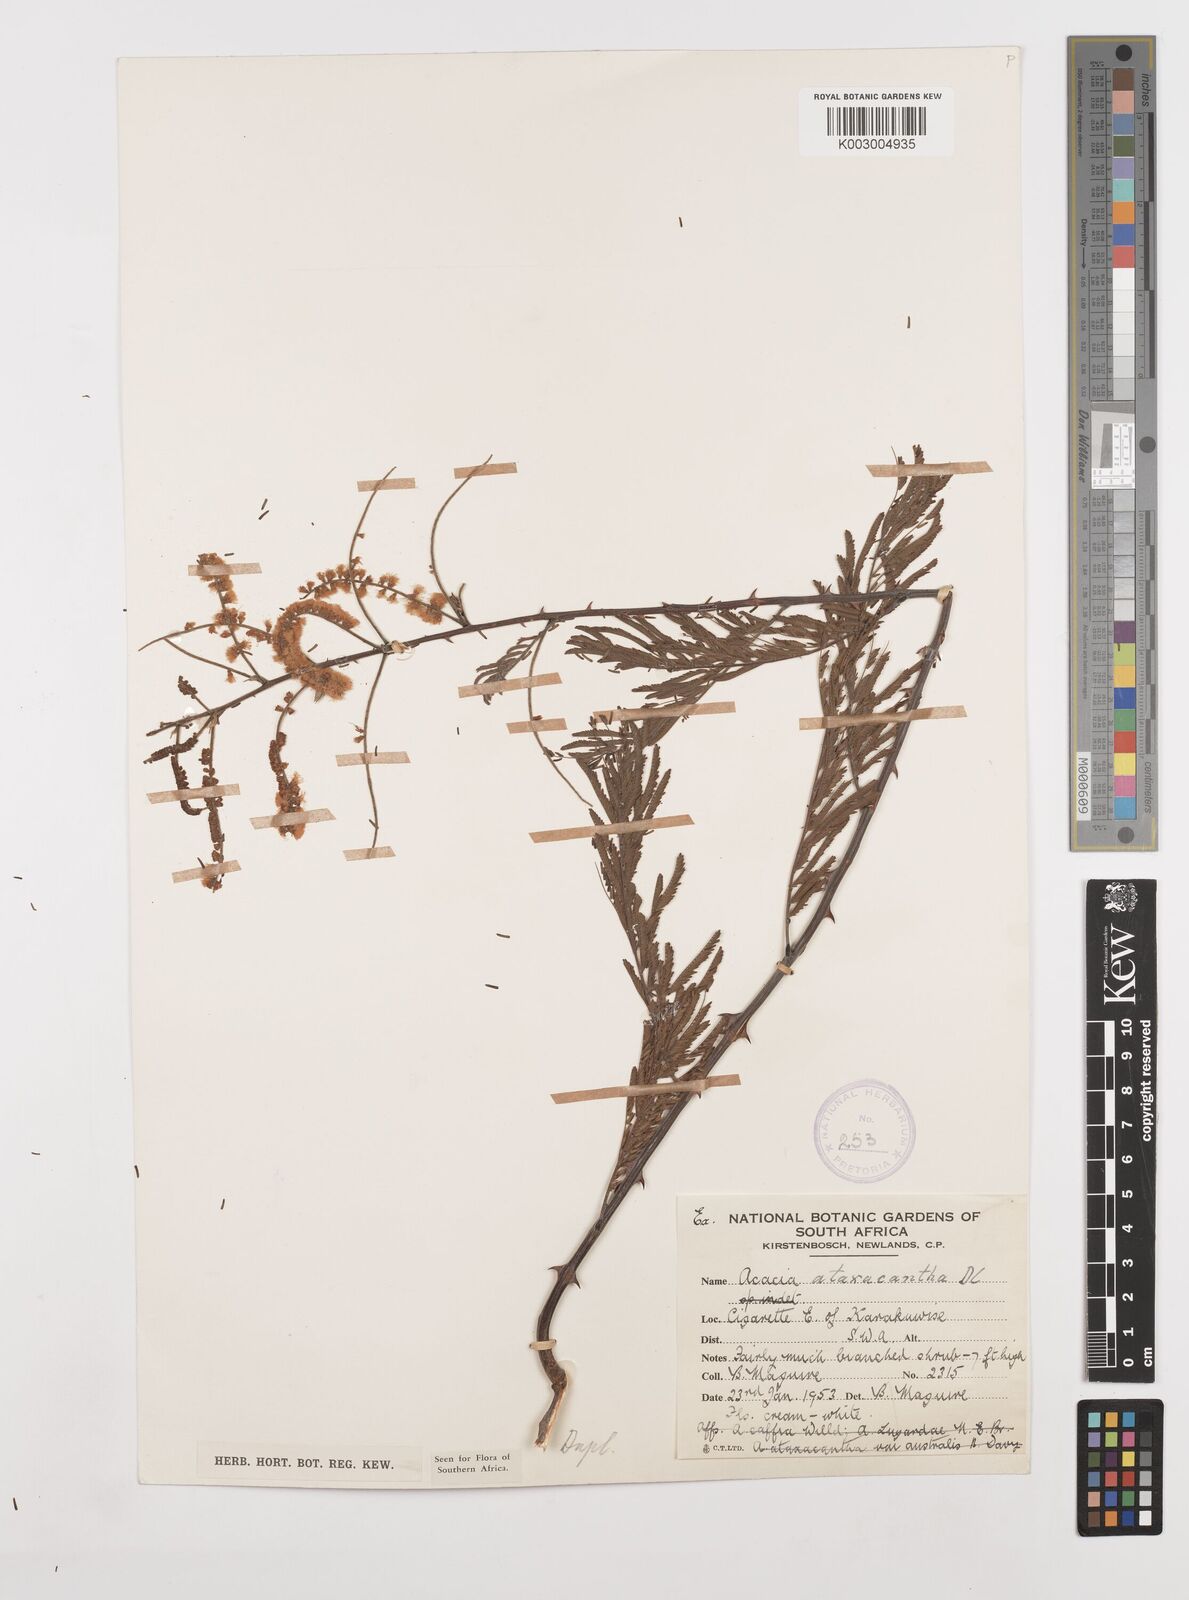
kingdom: Plantae
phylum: Tracheophyta
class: Magnoliopsida
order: Fabales
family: Fabaceae
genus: Senegalia
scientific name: Senegalia ataxacantha
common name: Flame acacia
